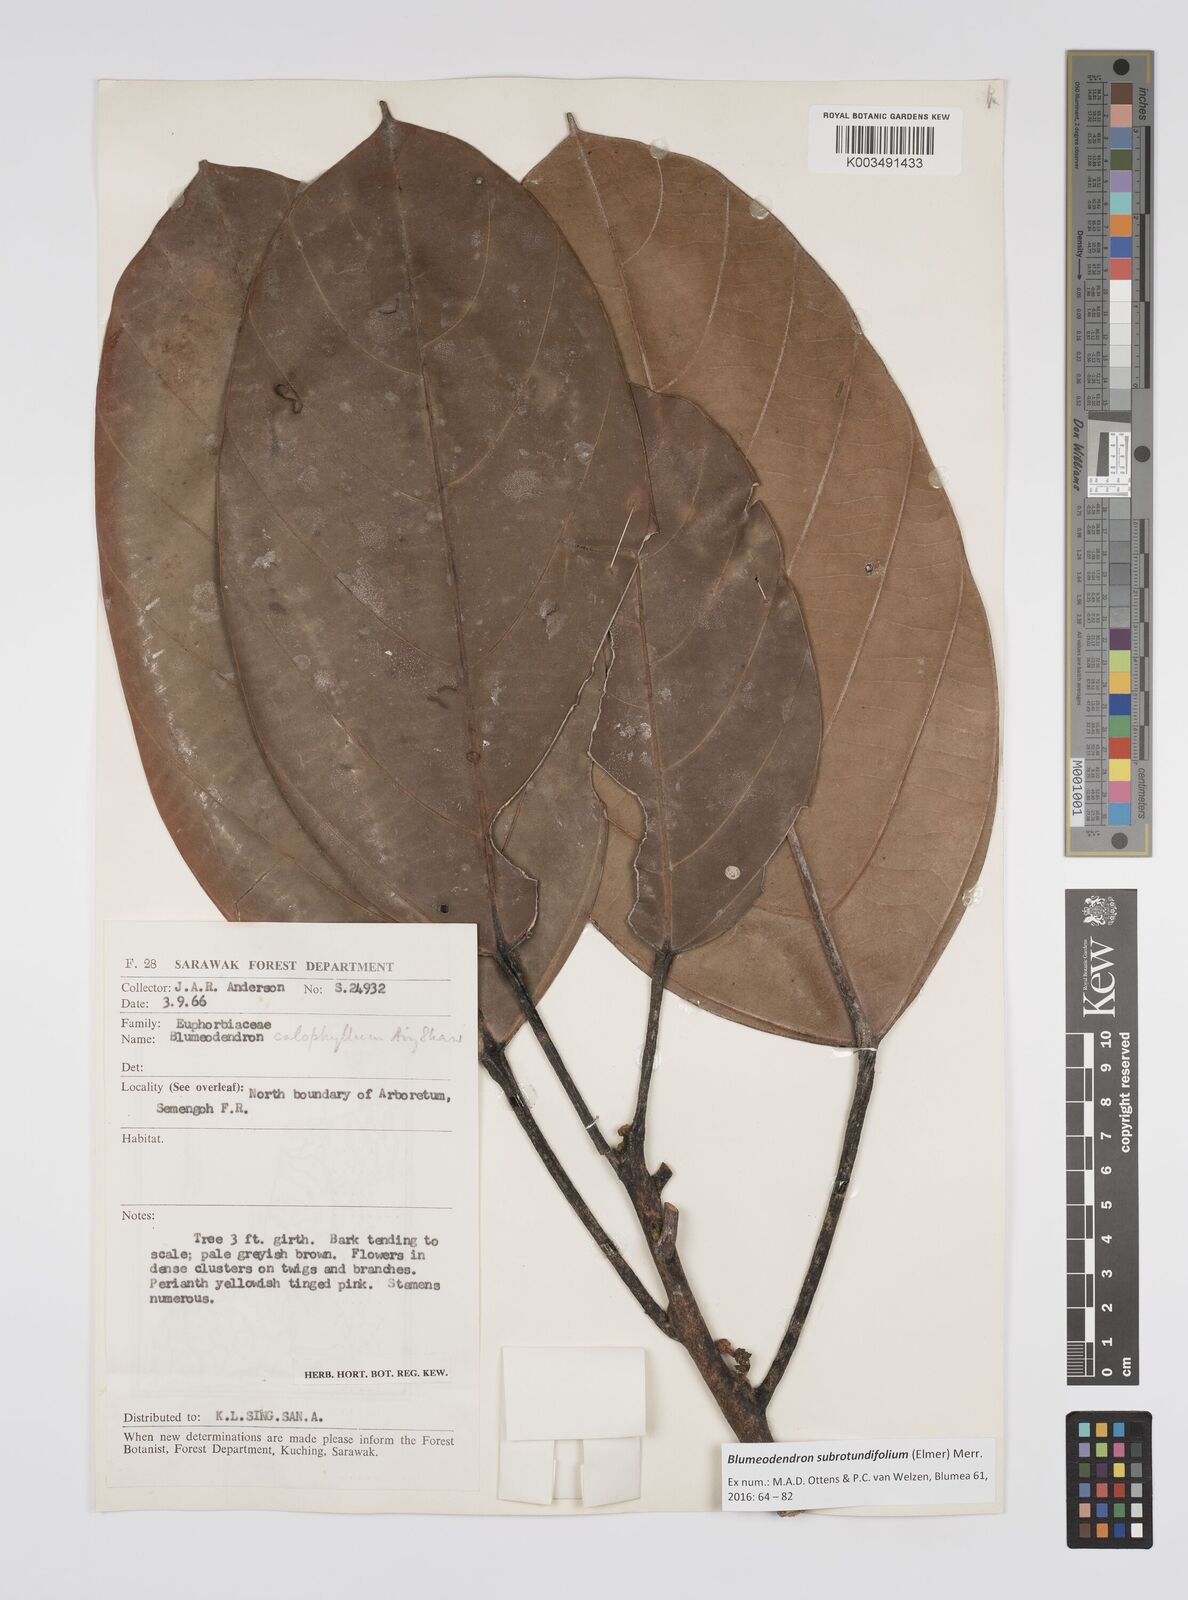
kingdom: Plantae
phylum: Tracheophyta
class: Magnoliopsida
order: Malpighiales
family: Euphorbiaceae
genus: Blumeodendron
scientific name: Blumeodendron subrotundifolium
